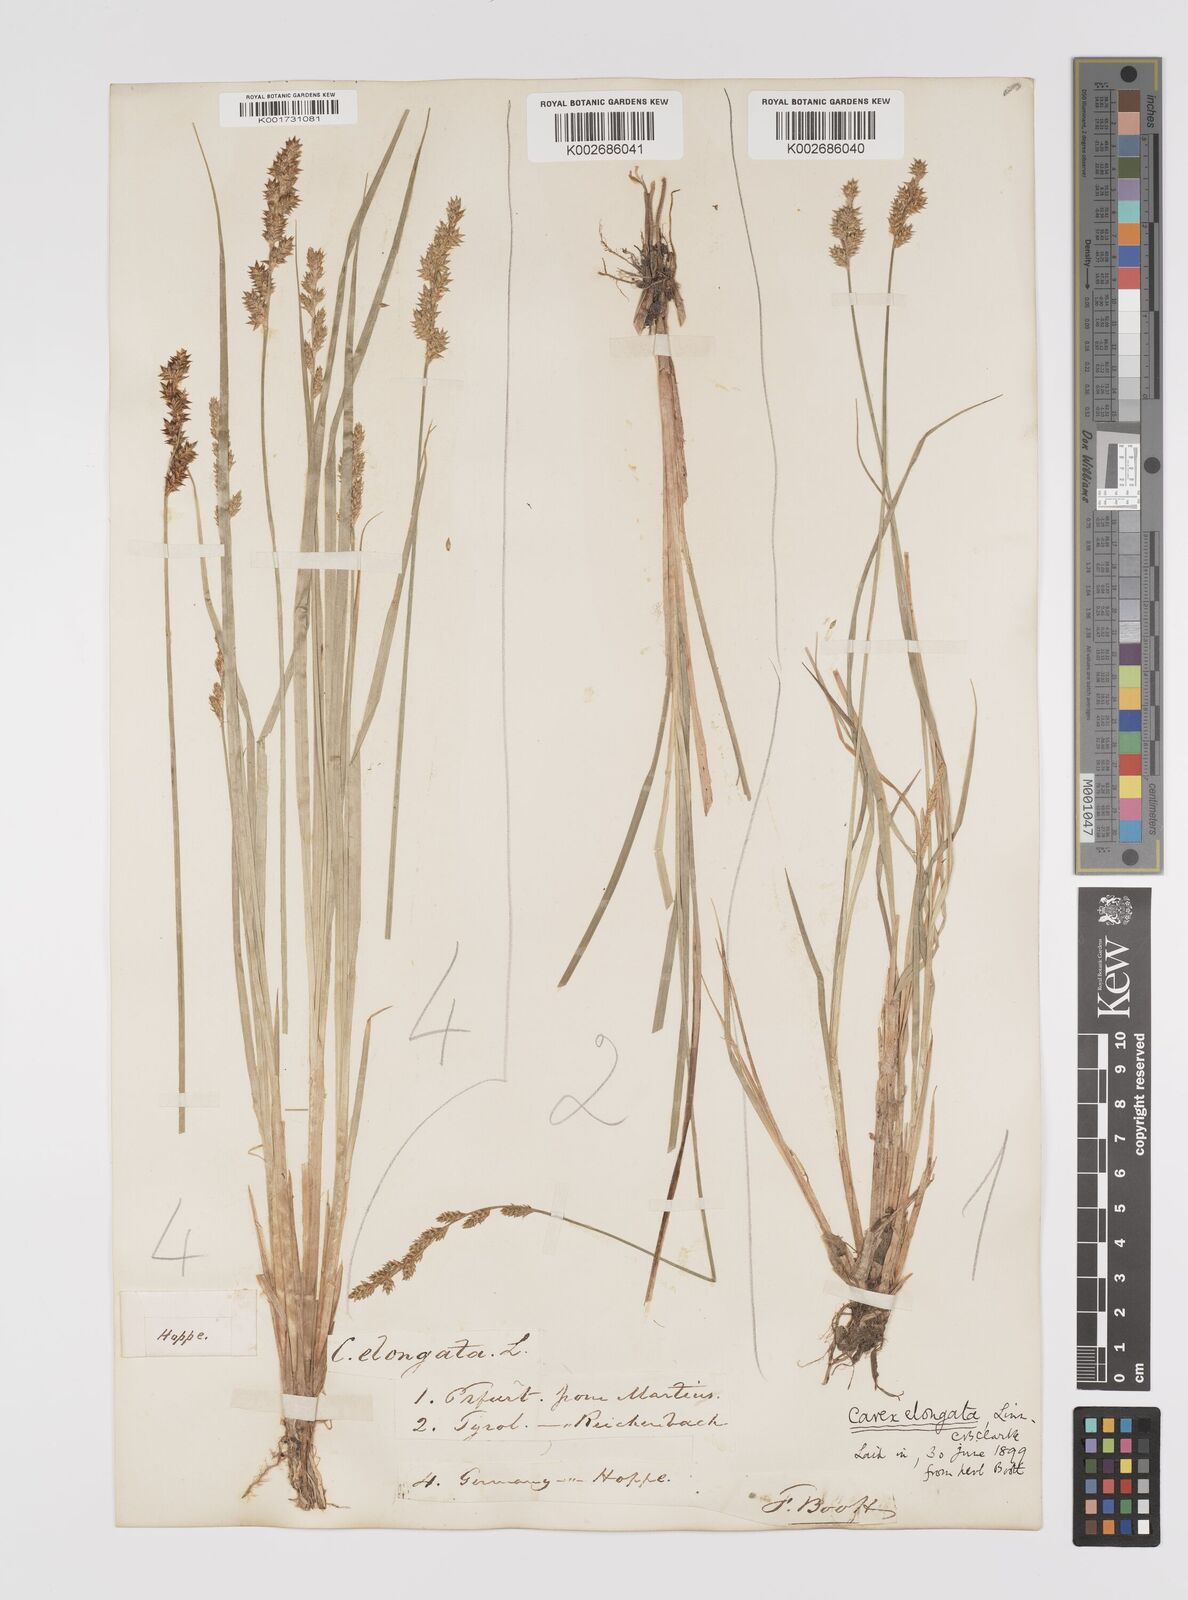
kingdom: Plantae
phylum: Tracheophyta
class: Liliopsida
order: Poales
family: Cyperaceae
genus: Carex
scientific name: Carex elongata
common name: Elongated sedge
